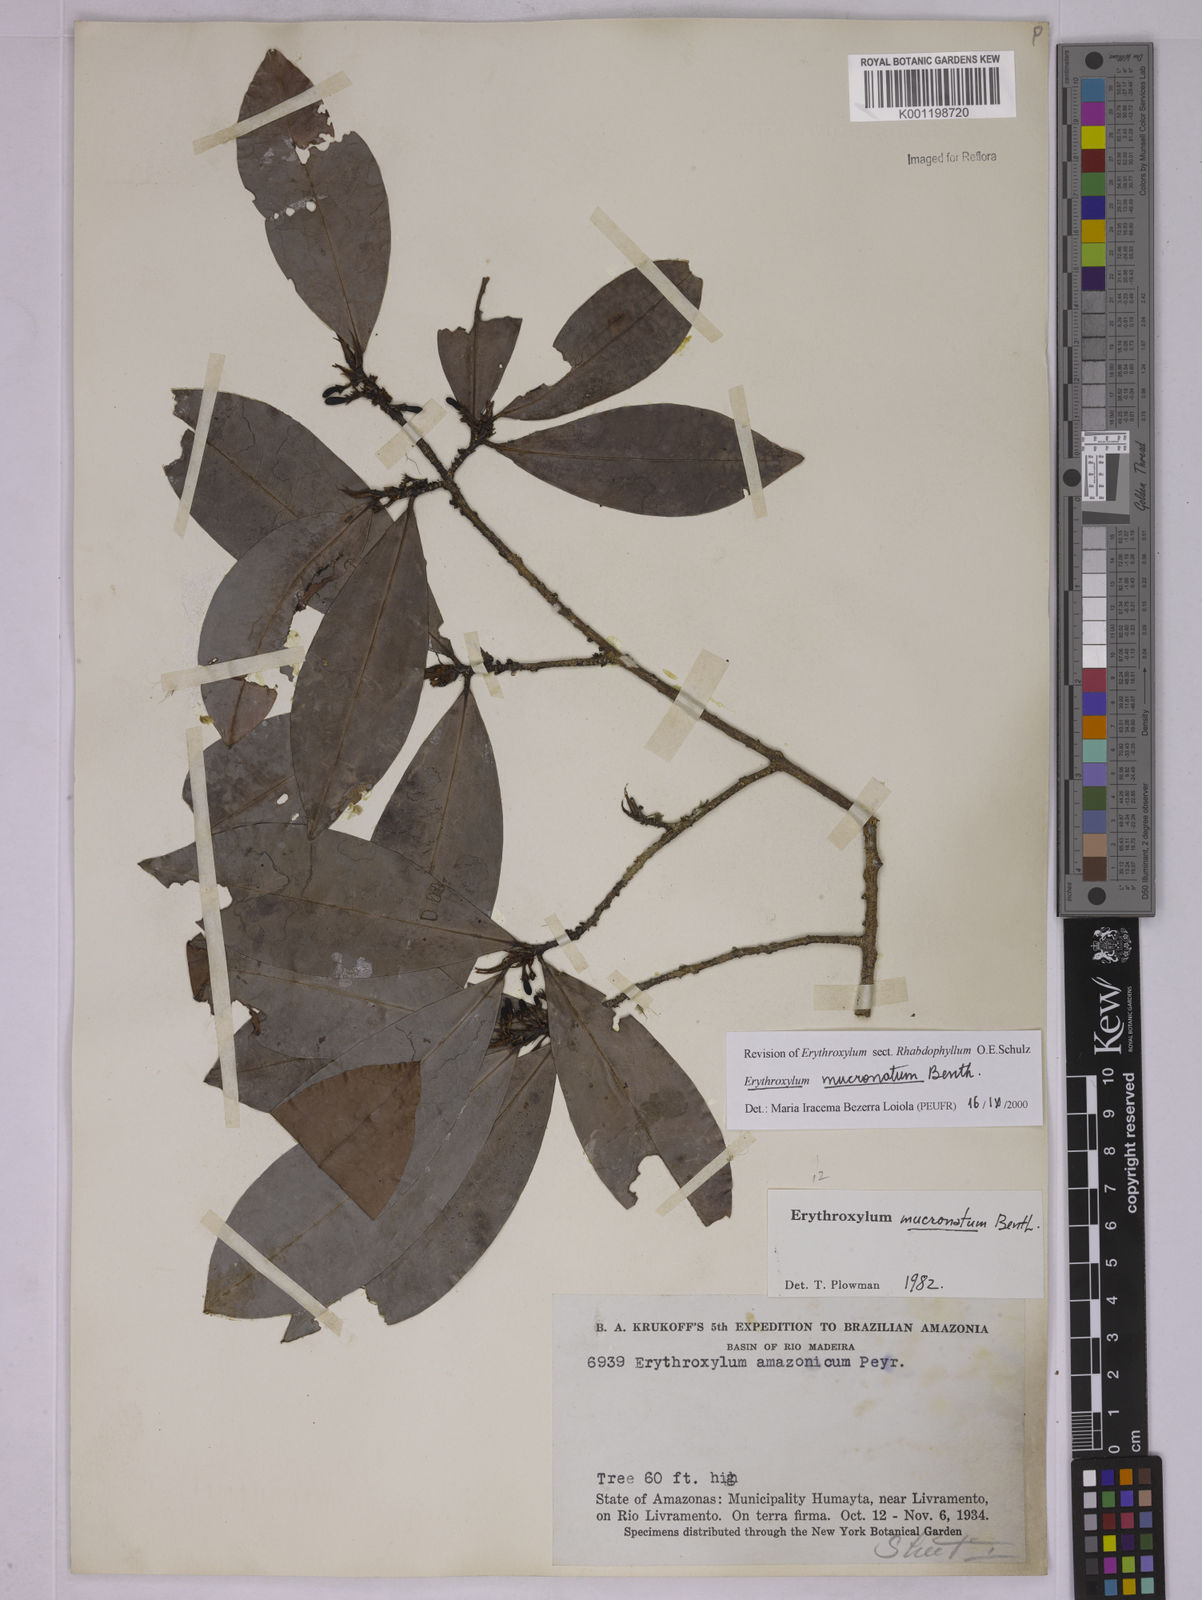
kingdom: Plantae
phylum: Tracheophyta
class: Magnoliopsida
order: Malpighiales
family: Erythroxylaceae
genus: Erythroxylum
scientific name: Erythroxylum mucronatum
